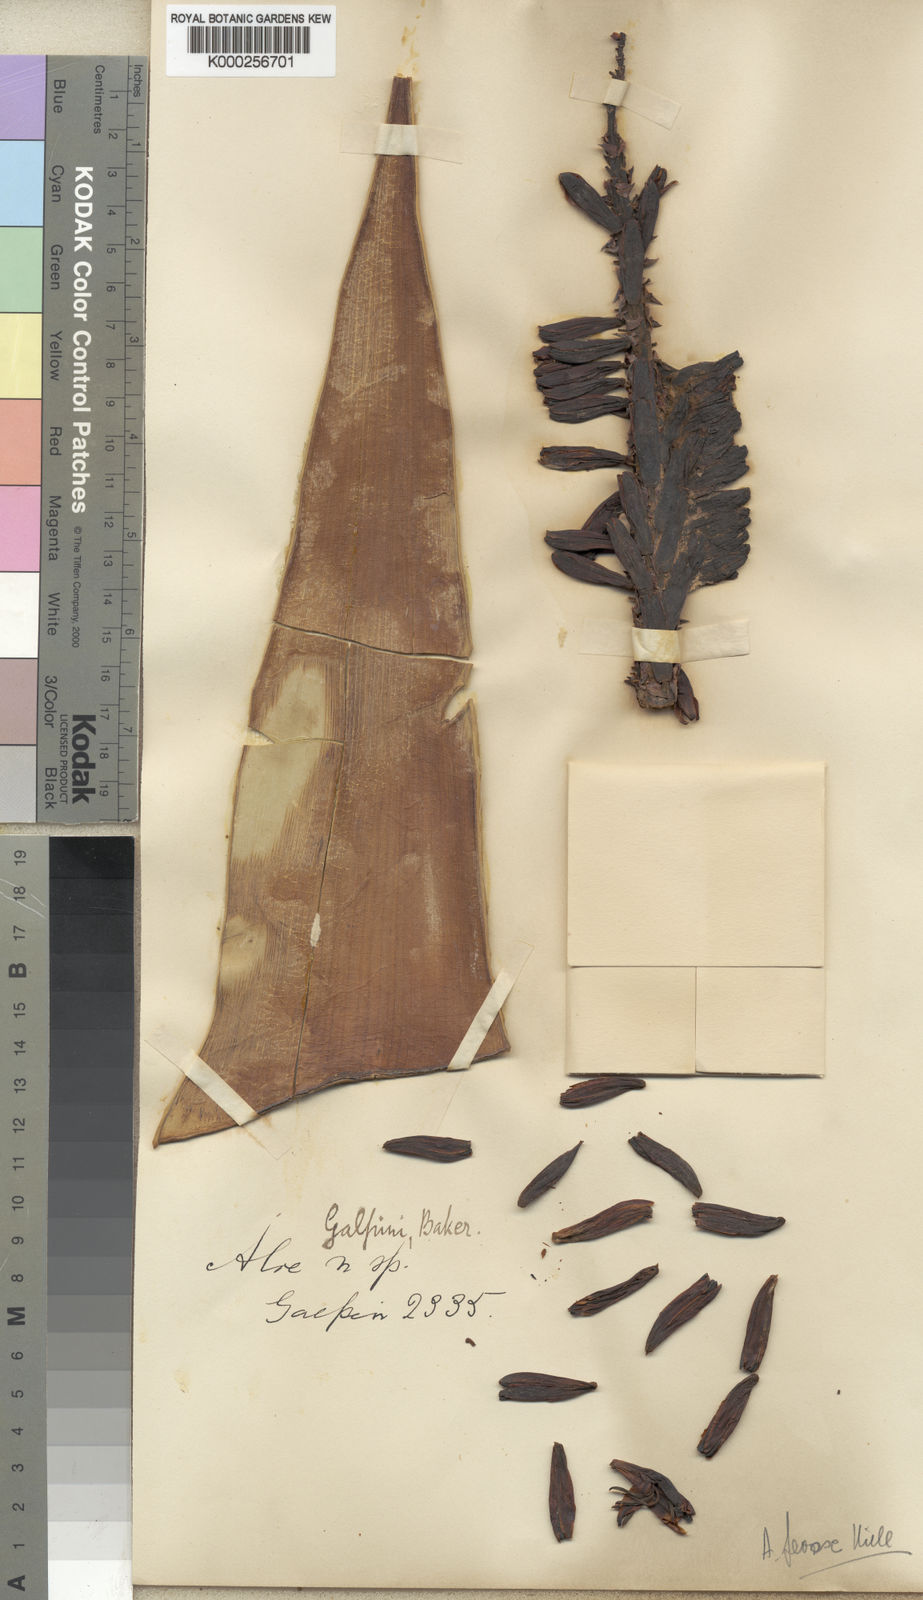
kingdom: Plantae
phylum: Tracheophyta
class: Liliopsida
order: Asparagales
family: Asphodelaceae
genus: Aloe
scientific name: Aloe ferox
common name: Bitter aloe
